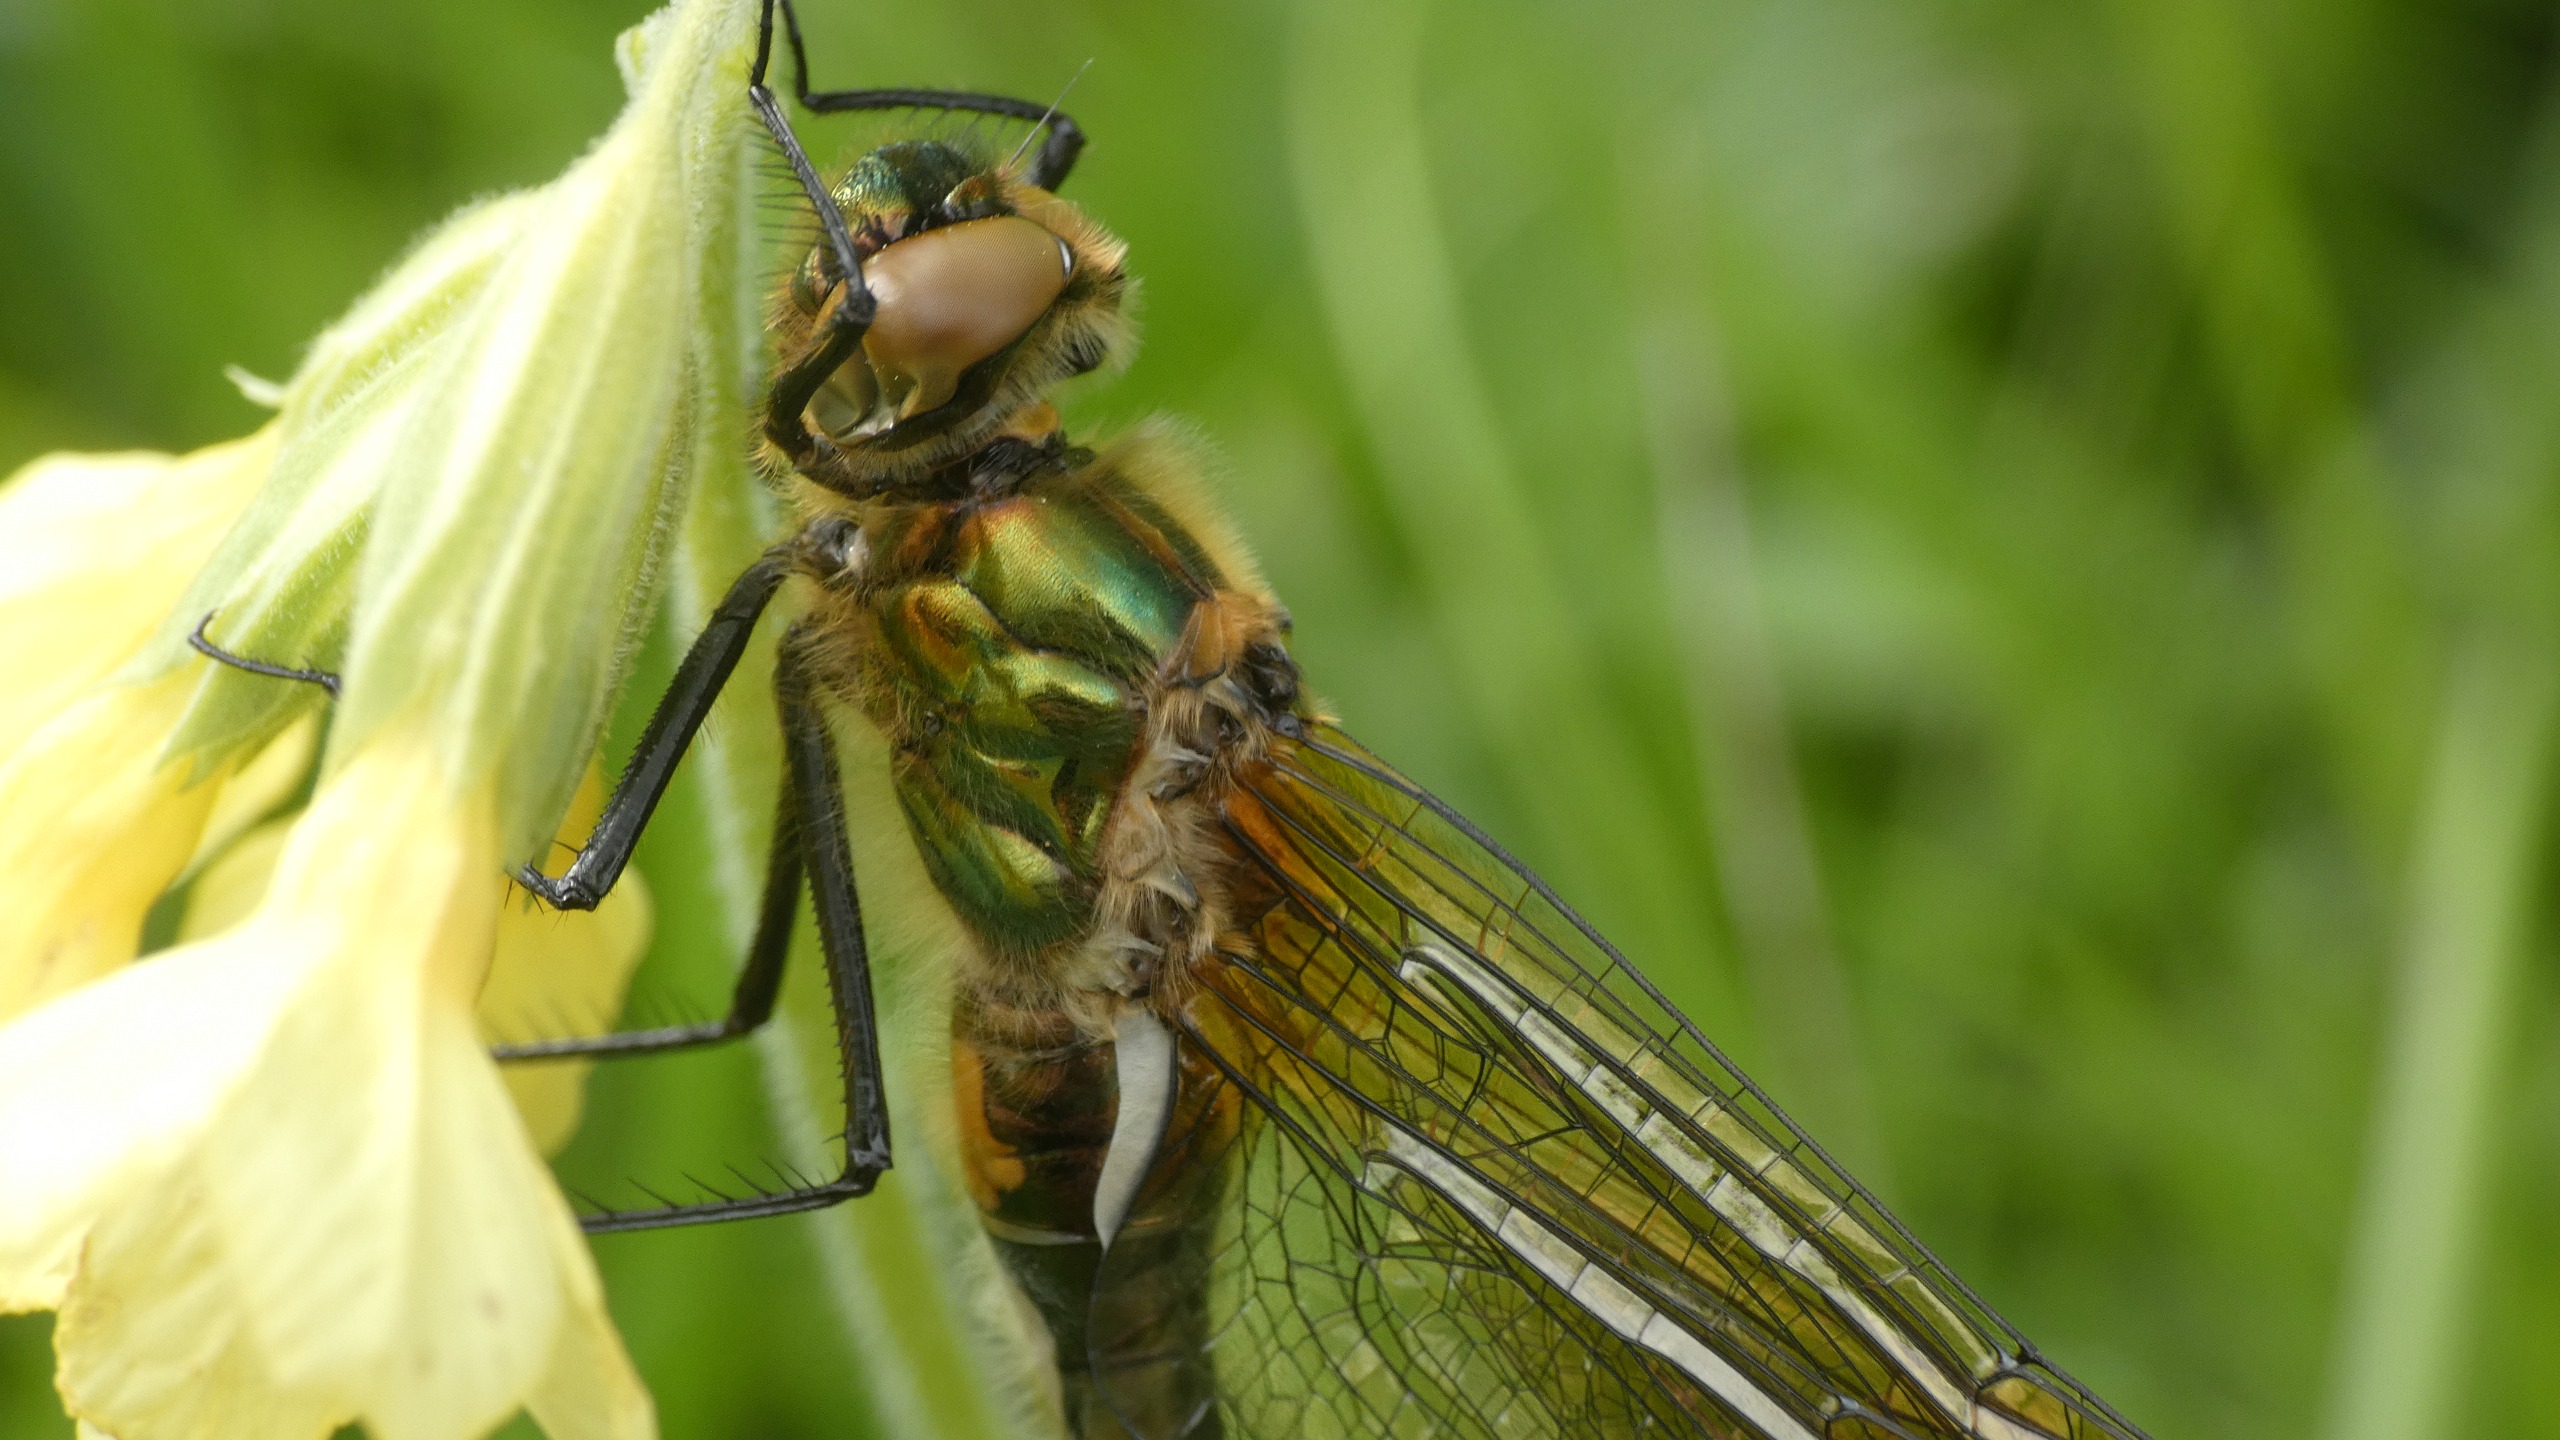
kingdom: Animalia
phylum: Arthropoda
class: Insecta
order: Odonata
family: Corduliidae
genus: Cordulia
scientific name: Cordulia aenea
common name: Grøn smaragdlibel
